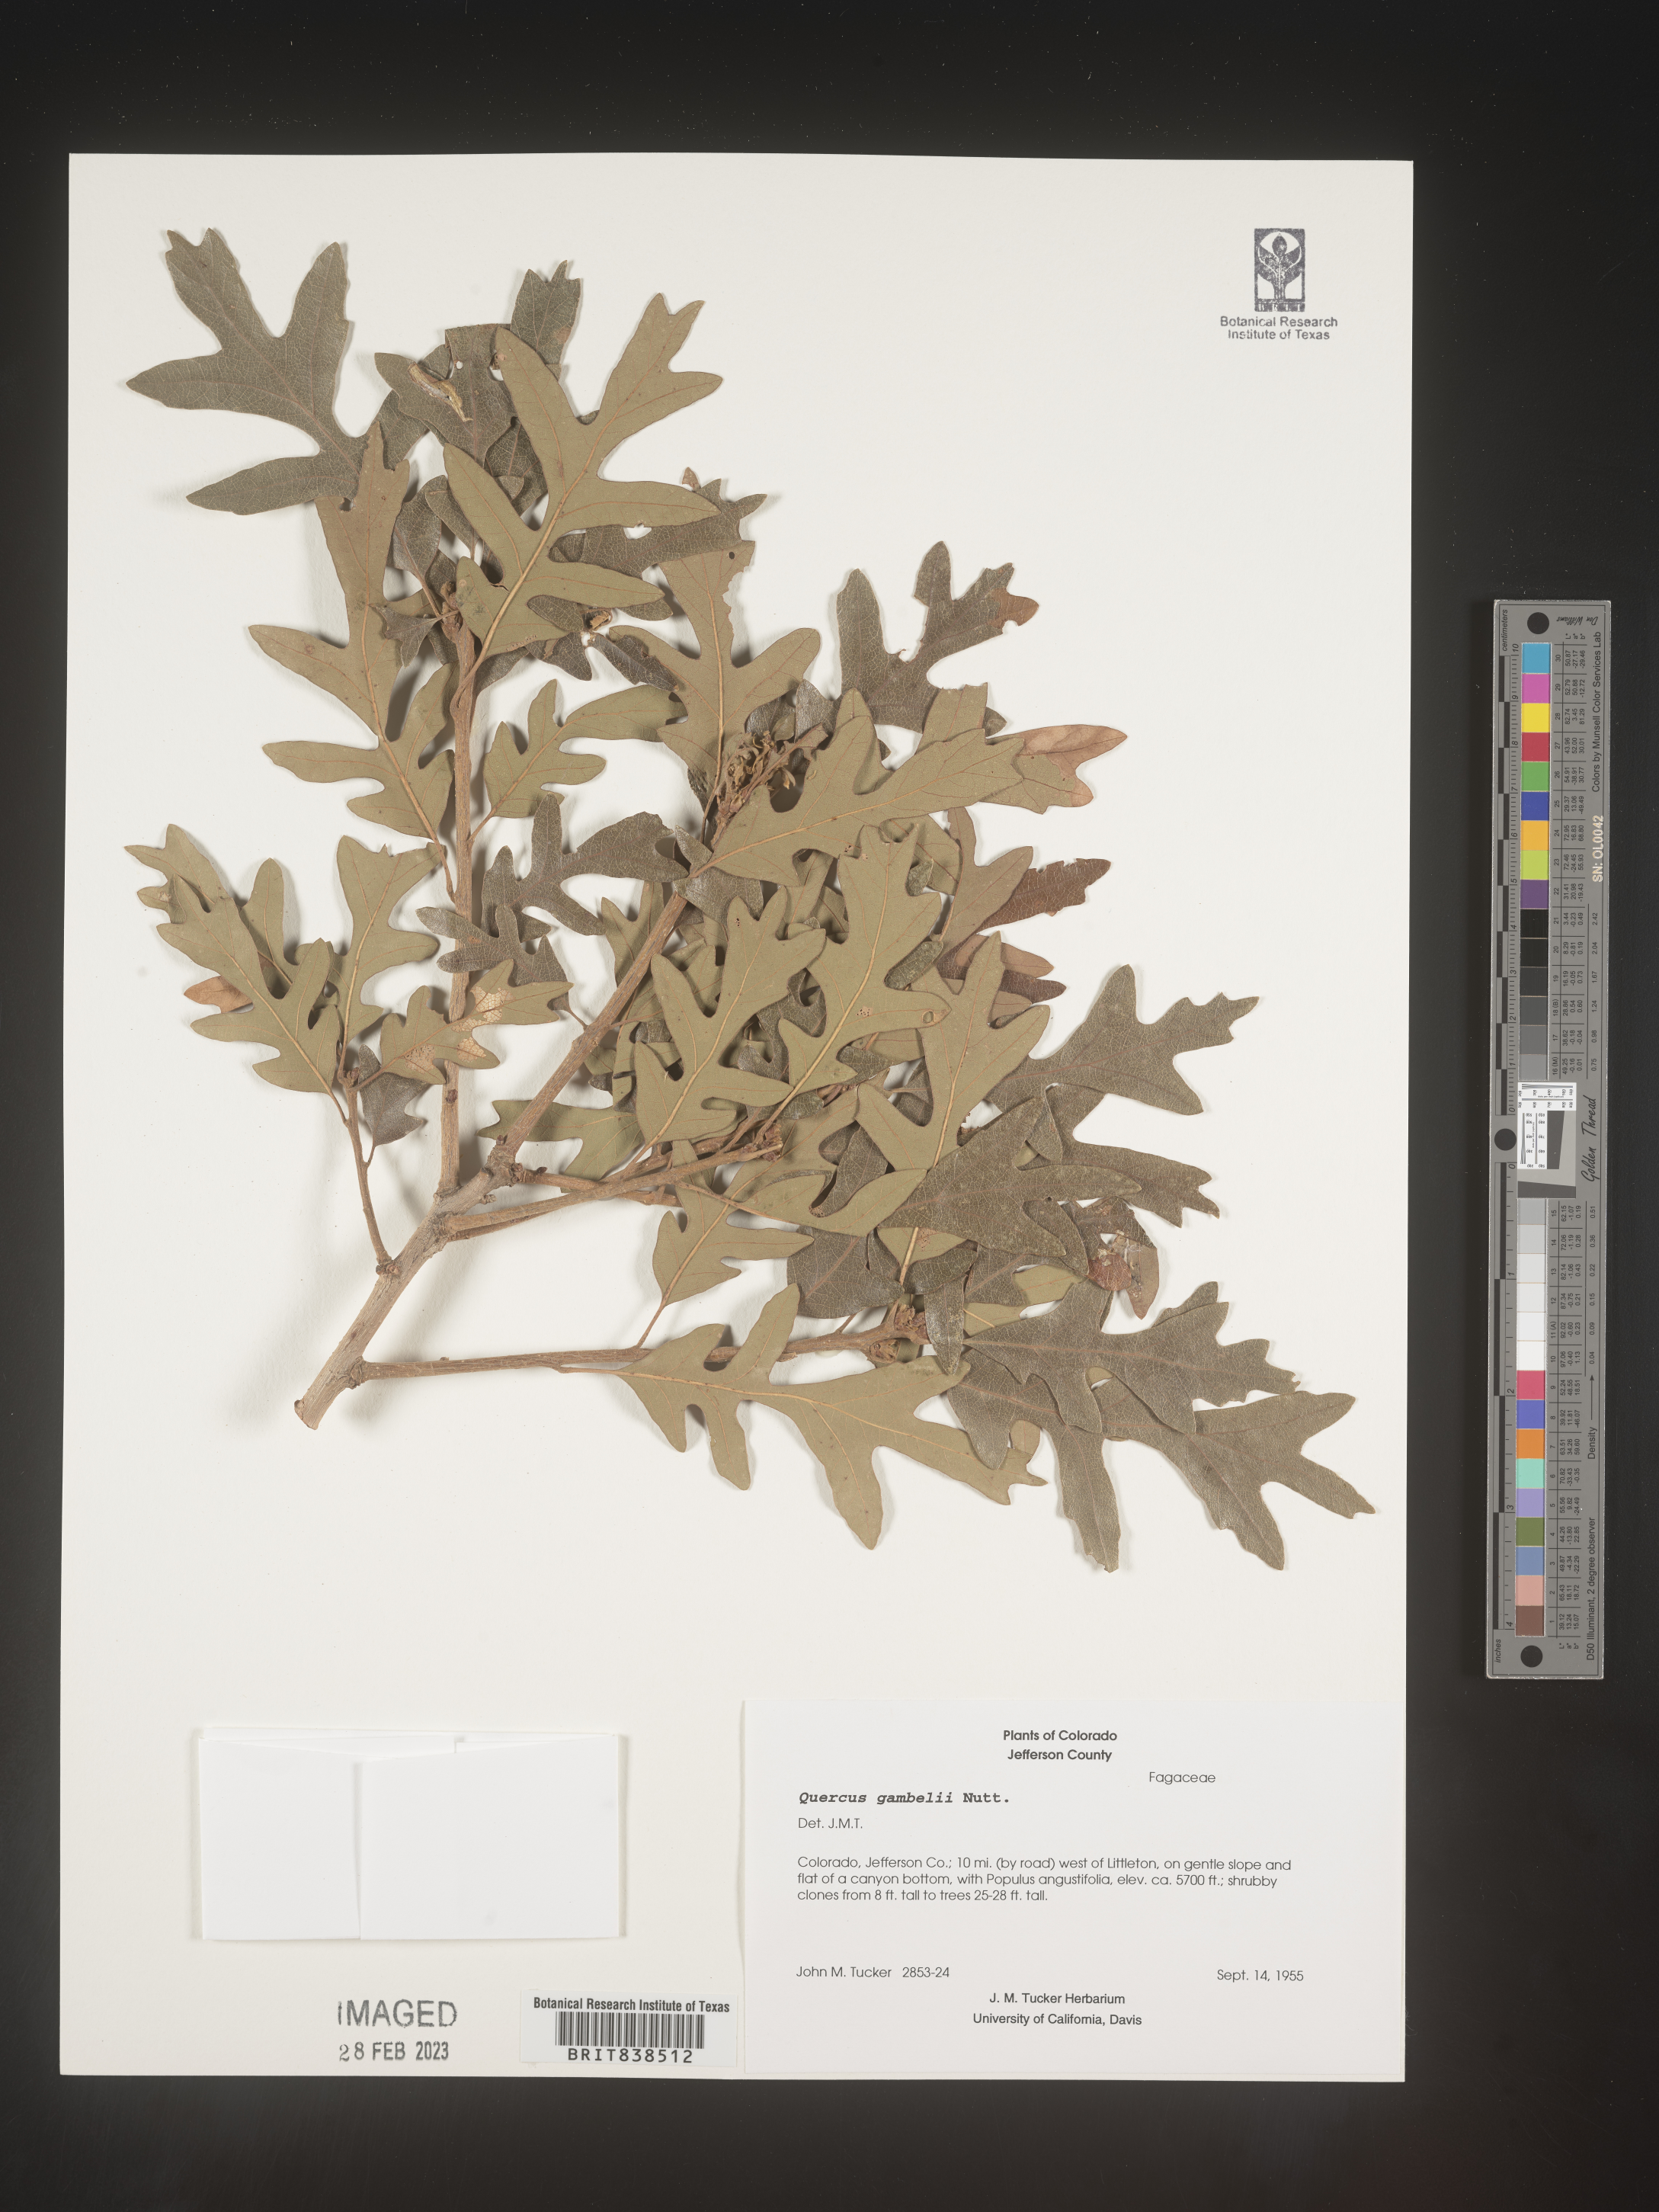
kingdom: Plantae
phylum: Tracheophyta
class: Magnoliopsida
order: Fagales
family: Fagaceae
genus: Quercus
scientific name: Quercus gambelii
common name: Gambel oak
